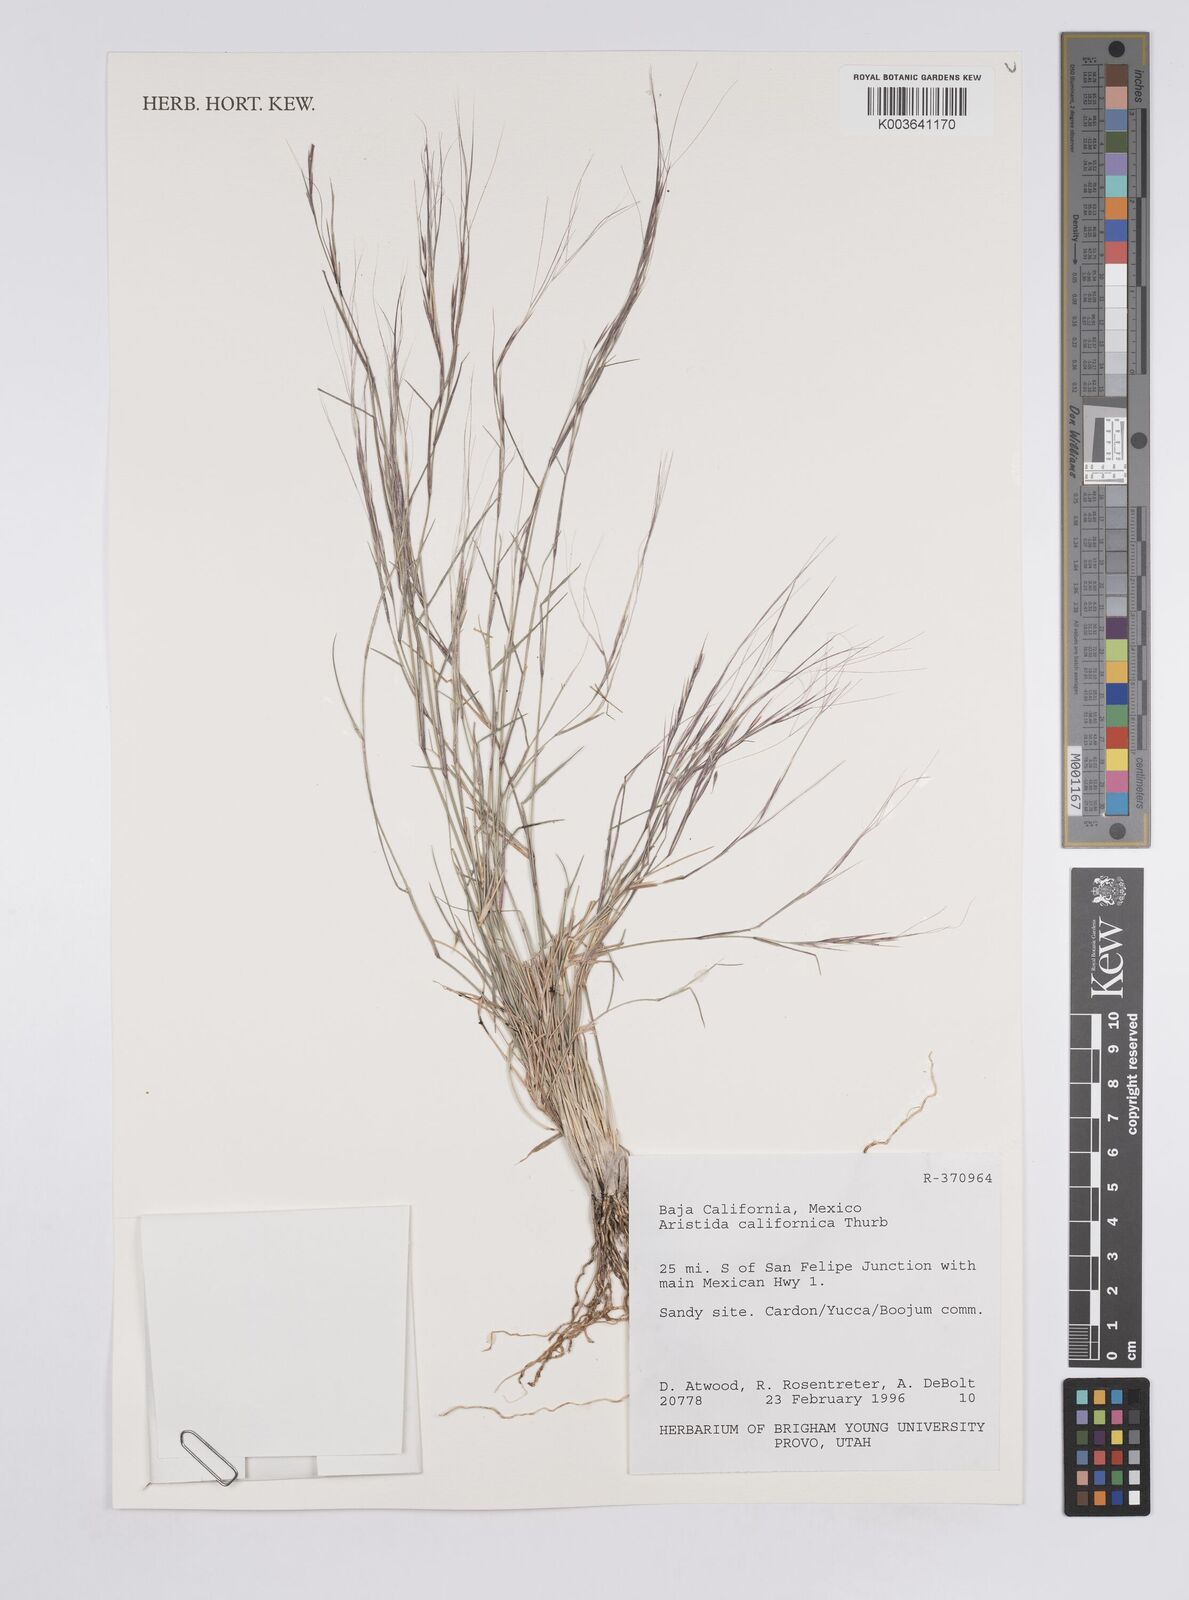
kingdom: Plantae
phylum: Tracheophyta
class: Liliopsida
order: Poales
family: Poaceae
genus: Aristida
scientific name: Aristida californica
